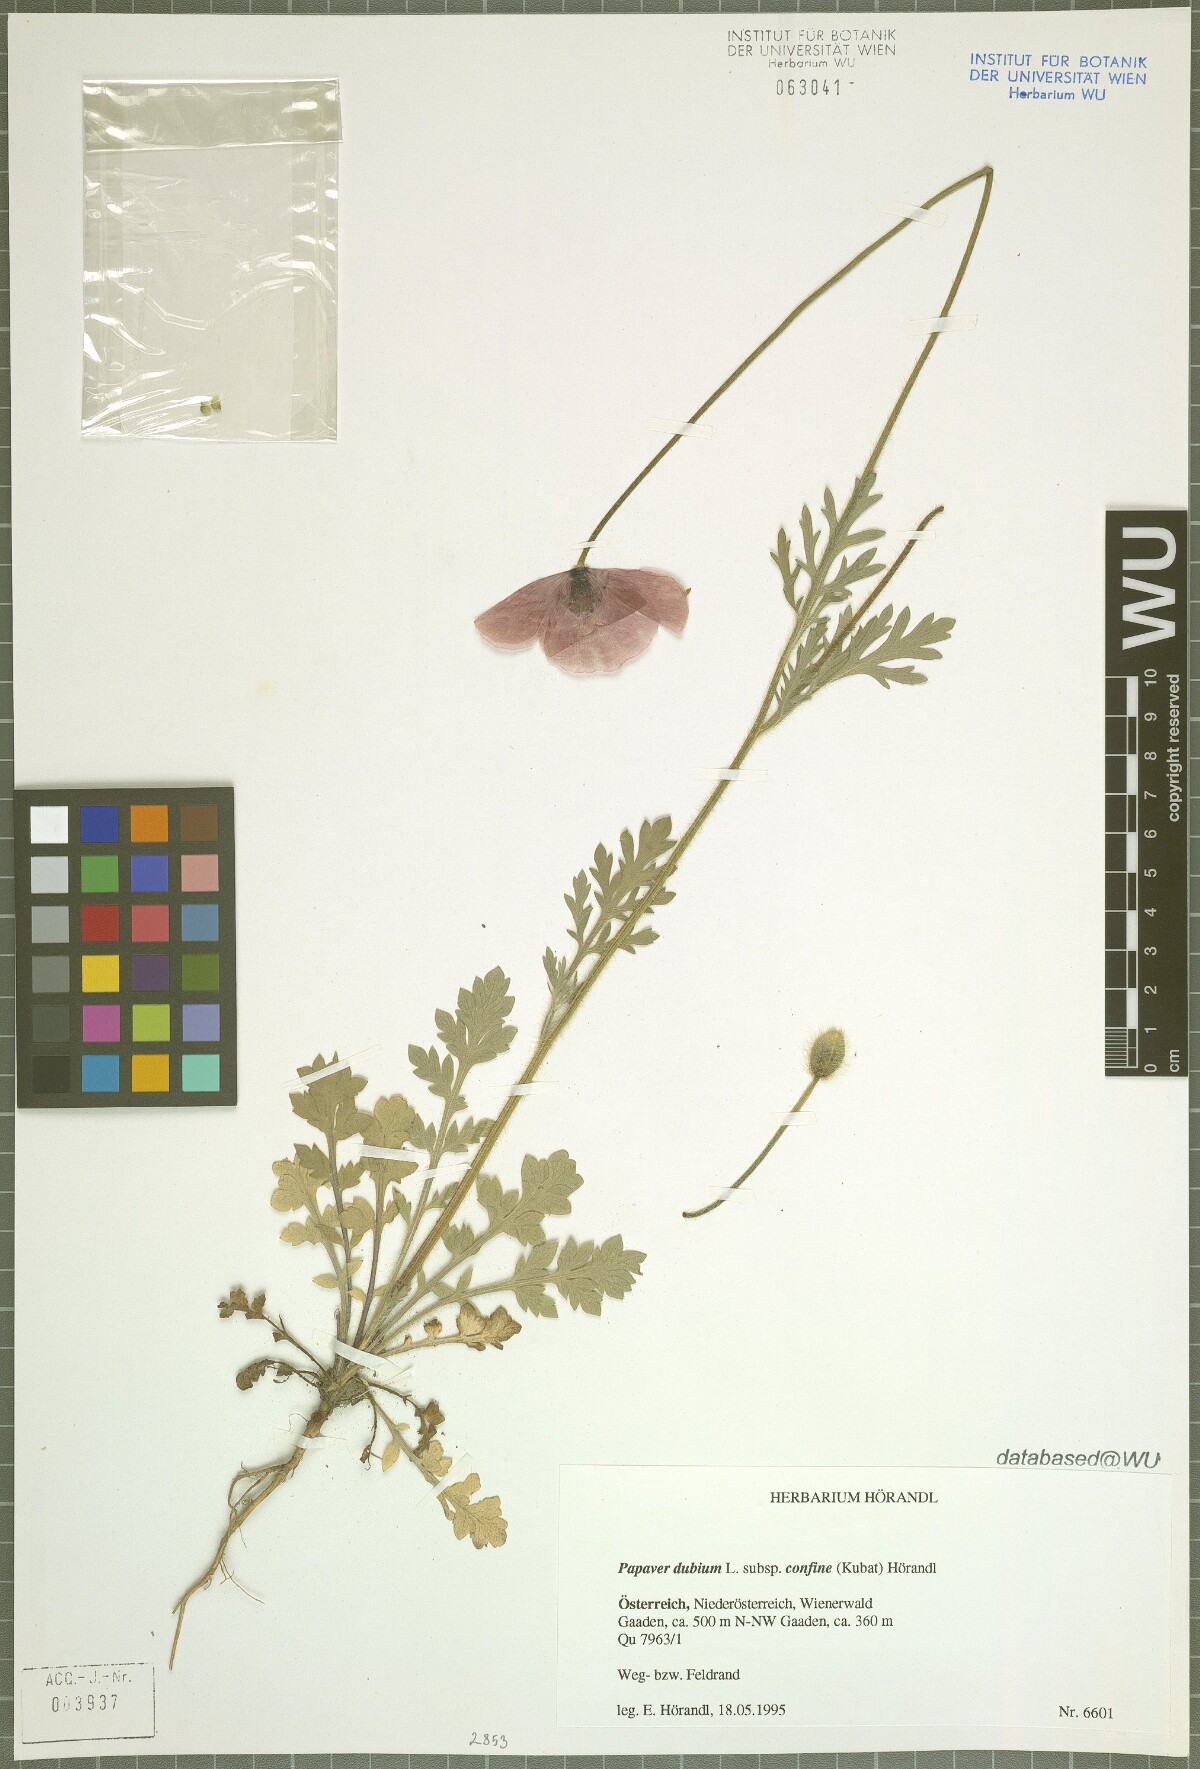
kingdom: Plantae
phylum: Tracheophyta
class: Magnoliopsida
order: Ranunculales
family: Papaveraceae
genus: Papaver
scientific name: Papaver confine
